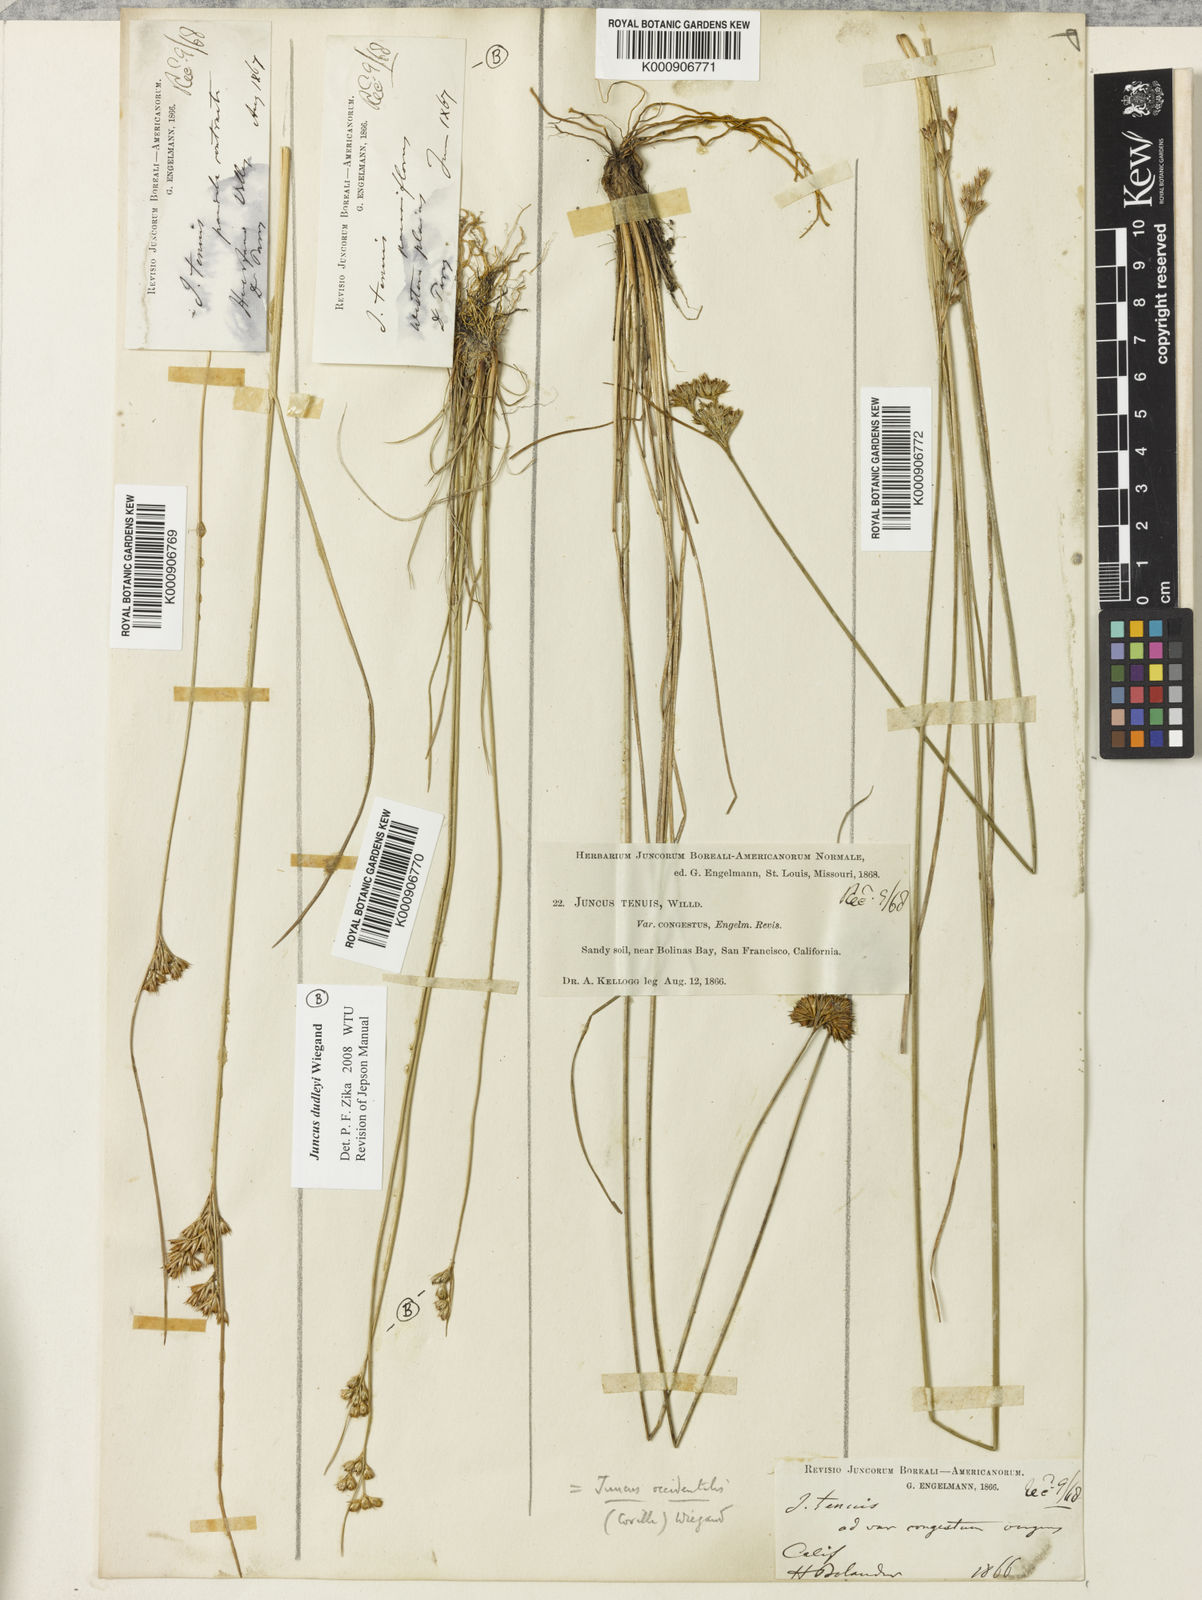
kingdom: Plantae
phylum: Tracheophyta
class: Liliopsida
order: Poales
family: Juncaceae
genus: Juncus
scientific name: Juncus occidentalis
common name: Western rush
